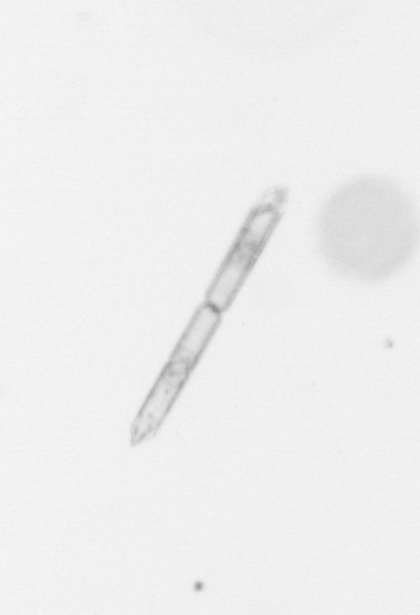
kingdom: Chromista
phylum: Ochrophyta
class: Bacillariophyceae
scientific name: Bacillariophyceae
